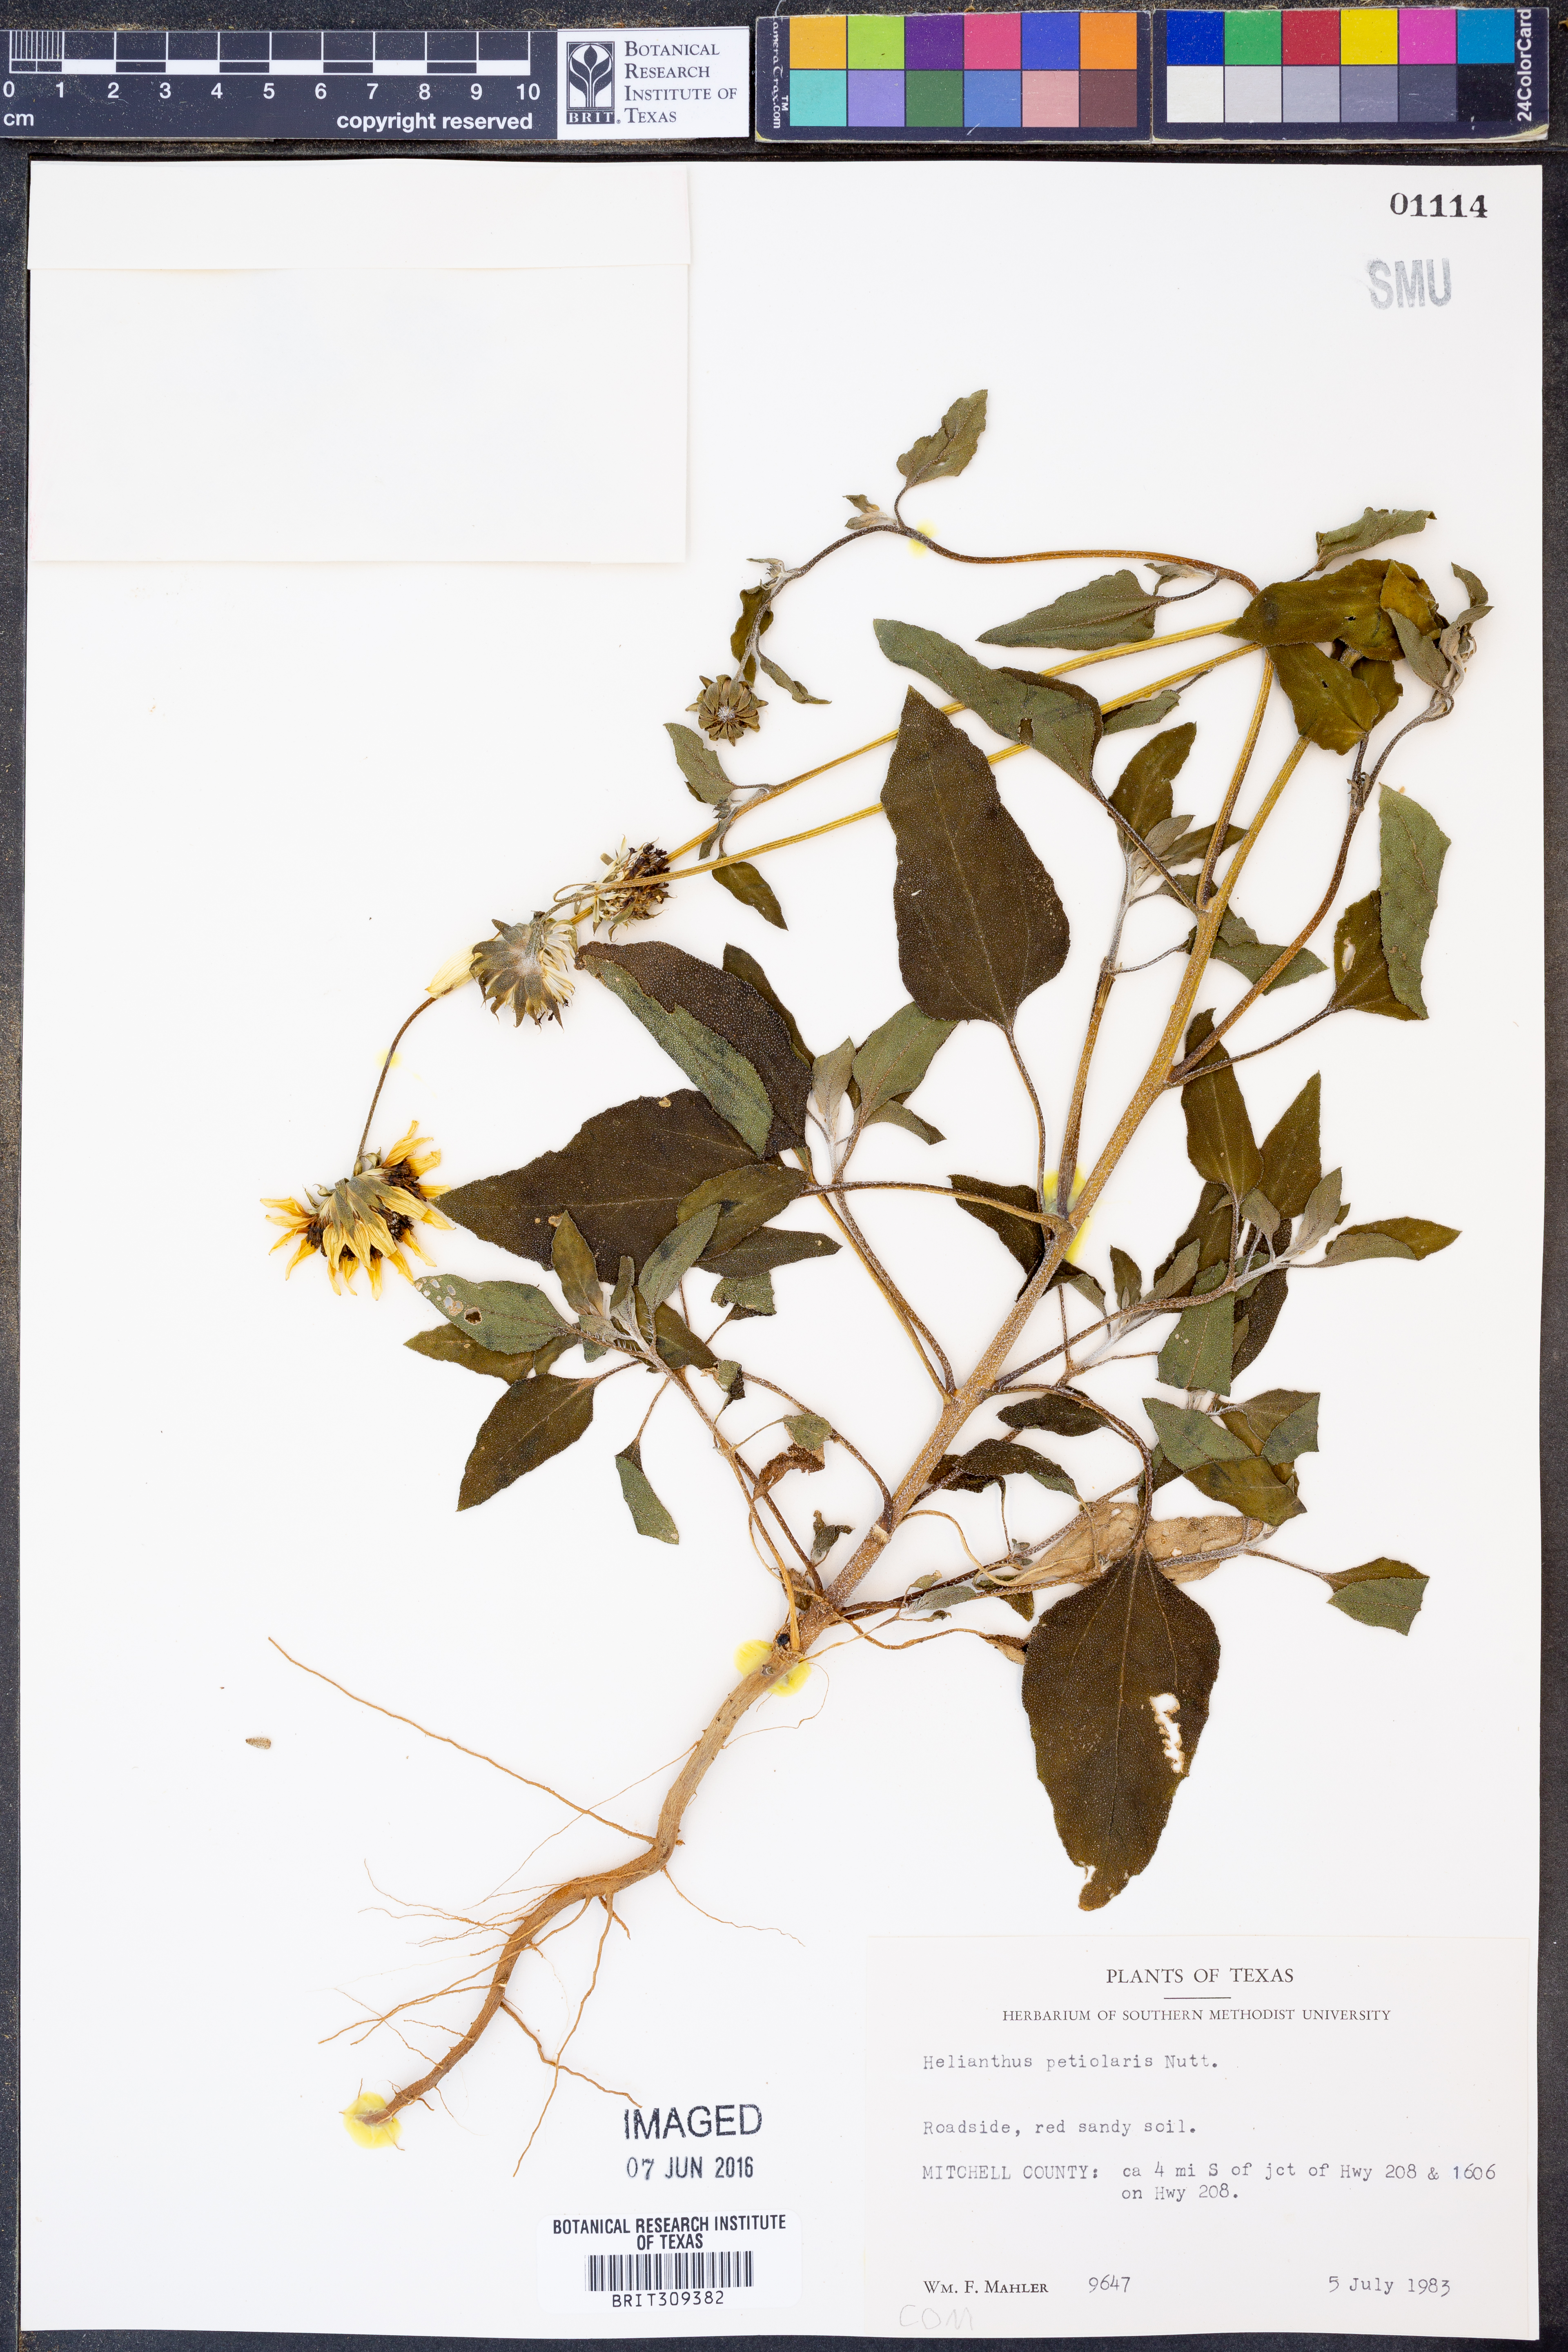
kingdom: Plantae
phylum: Tracheophyta
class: Magnoliopsida
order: Asterales
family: Asteraceae
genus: Helianthus
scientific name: Helianthus petiolaris
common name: Lesser sunflower
